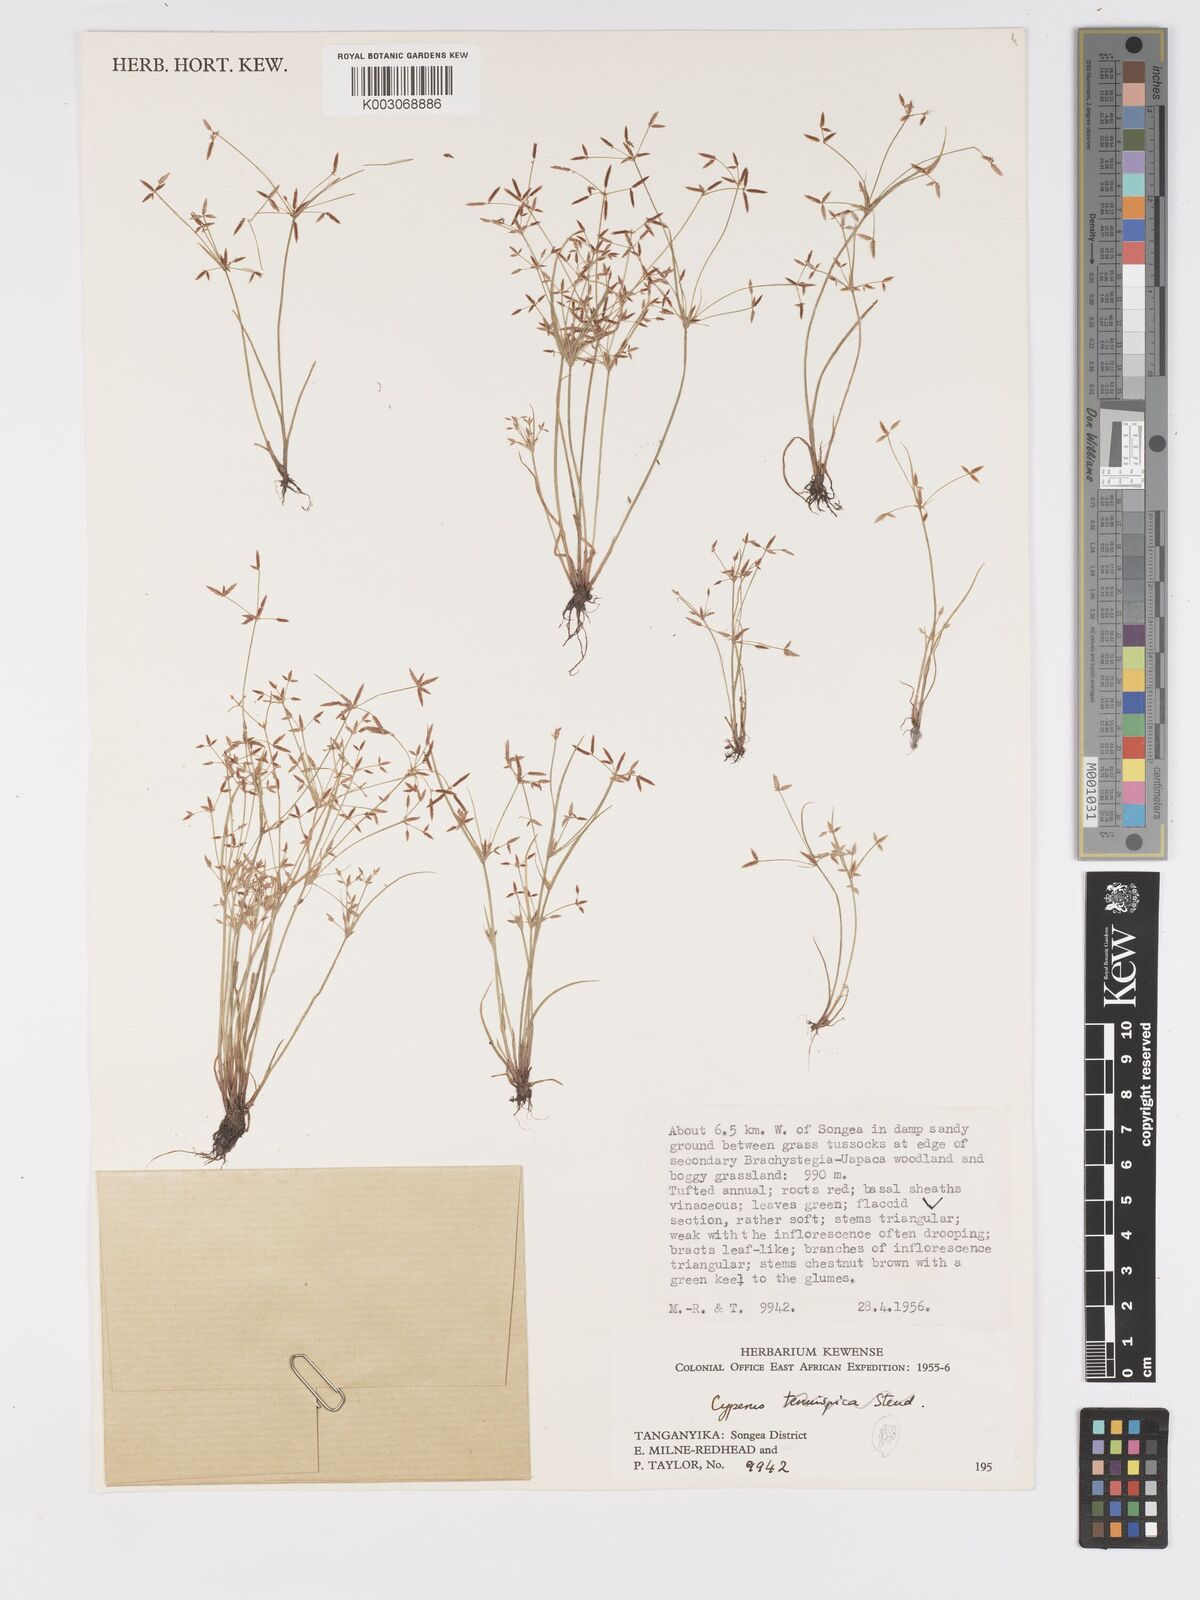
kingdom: Plantae
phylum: Tracheophyta
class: Liliopsida
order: Poales
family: Cyperaceae
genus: Cyperus
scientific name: Cyperus tenuispica
